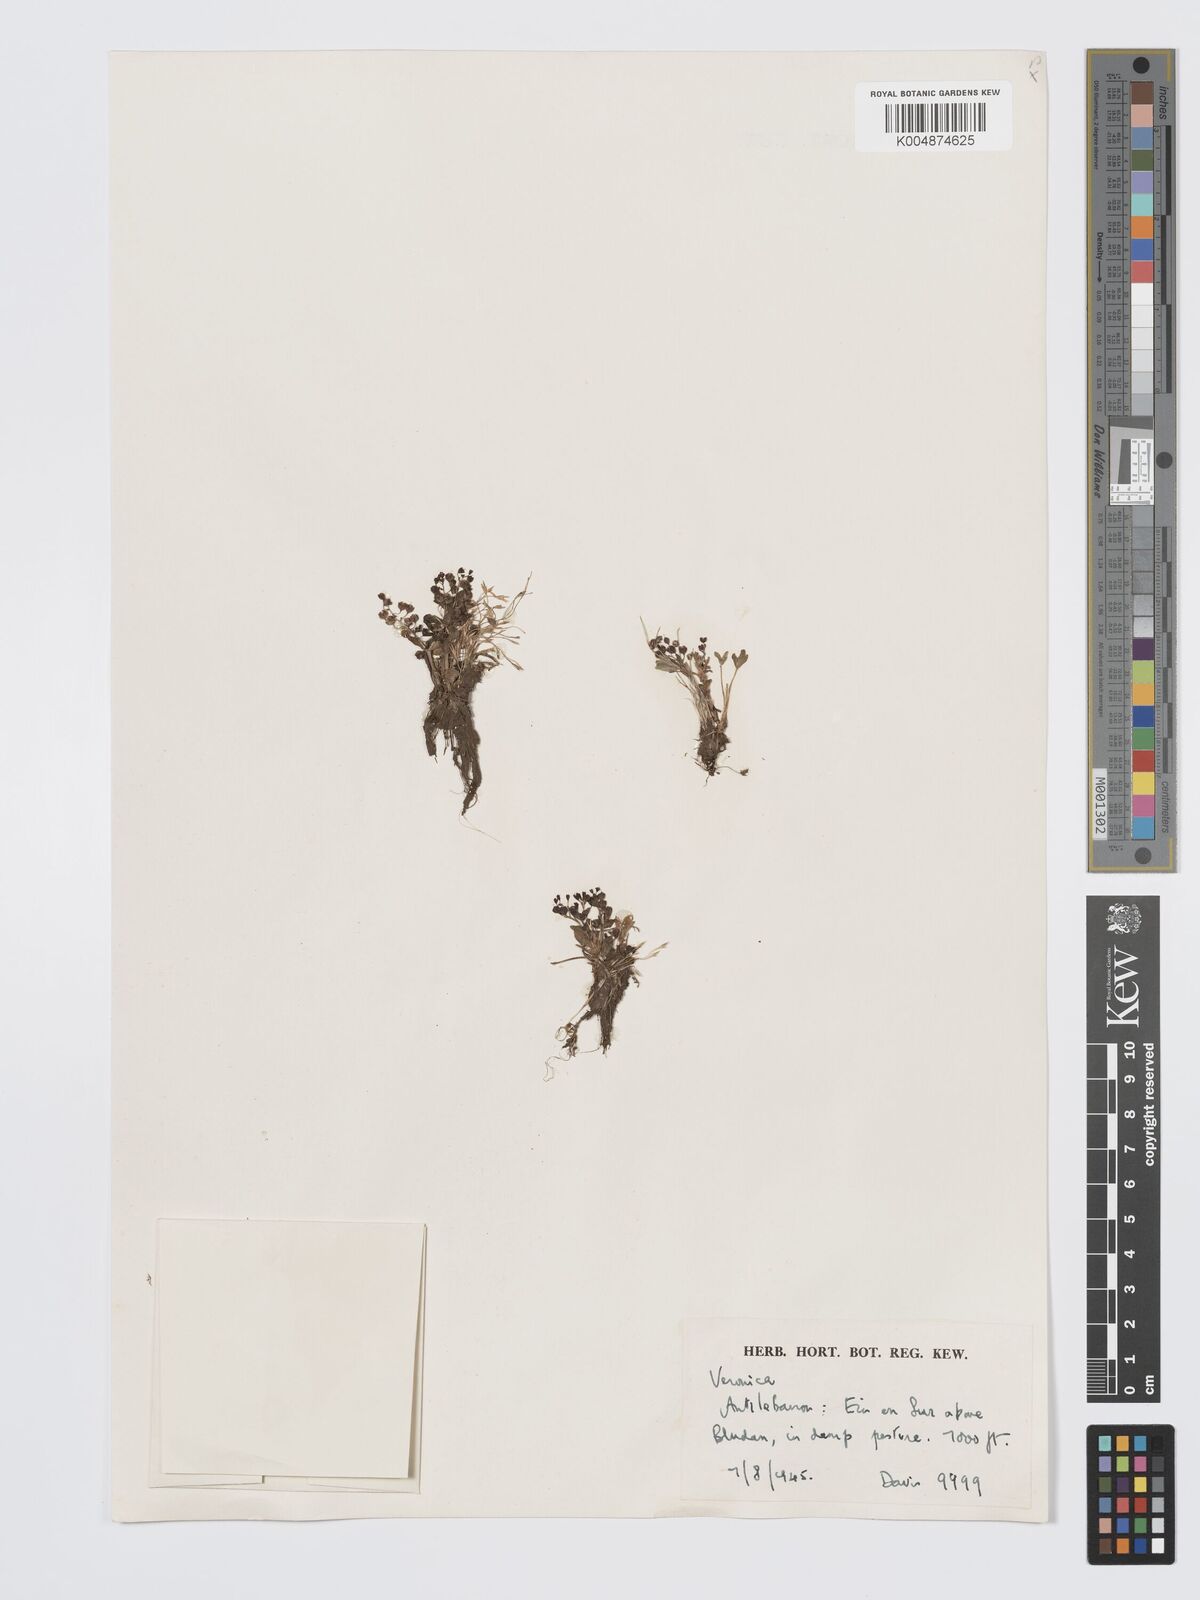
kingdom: Plantae
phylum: Tracheophyta
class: Magnoliopsida
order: Lamiales
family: Plantaginaceae
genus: Veronica
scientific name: Veronica
